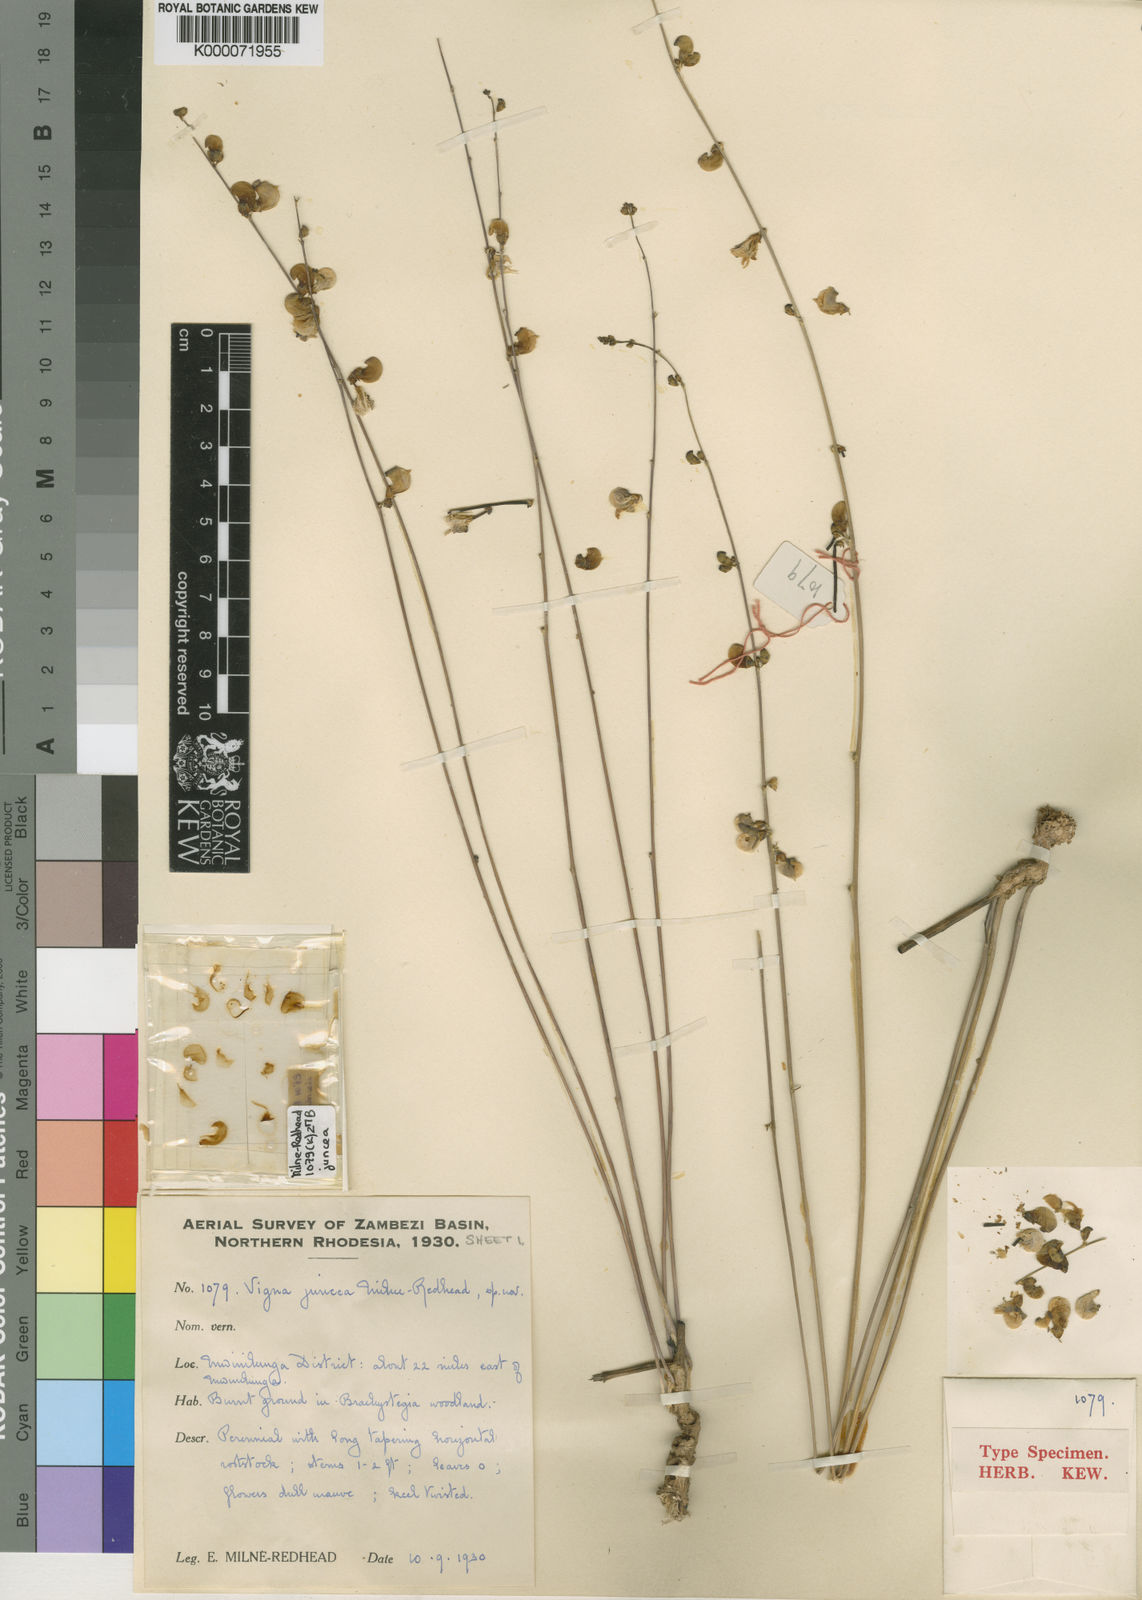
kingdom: Plantae
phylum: Tracheophyta
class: Magnoliopsida
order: Fabales
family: Fabaceae
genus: Vigna
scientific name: Vigna juncea
